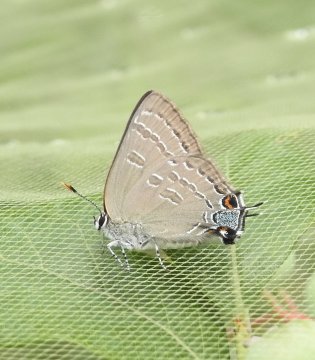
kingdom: Animalia
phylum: Arthropoda
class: Insecta
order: Lepidoptera
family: Lycaenidae
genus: Strymon
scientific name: Strymon caryaevorus
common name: Hickory Hairstreak
